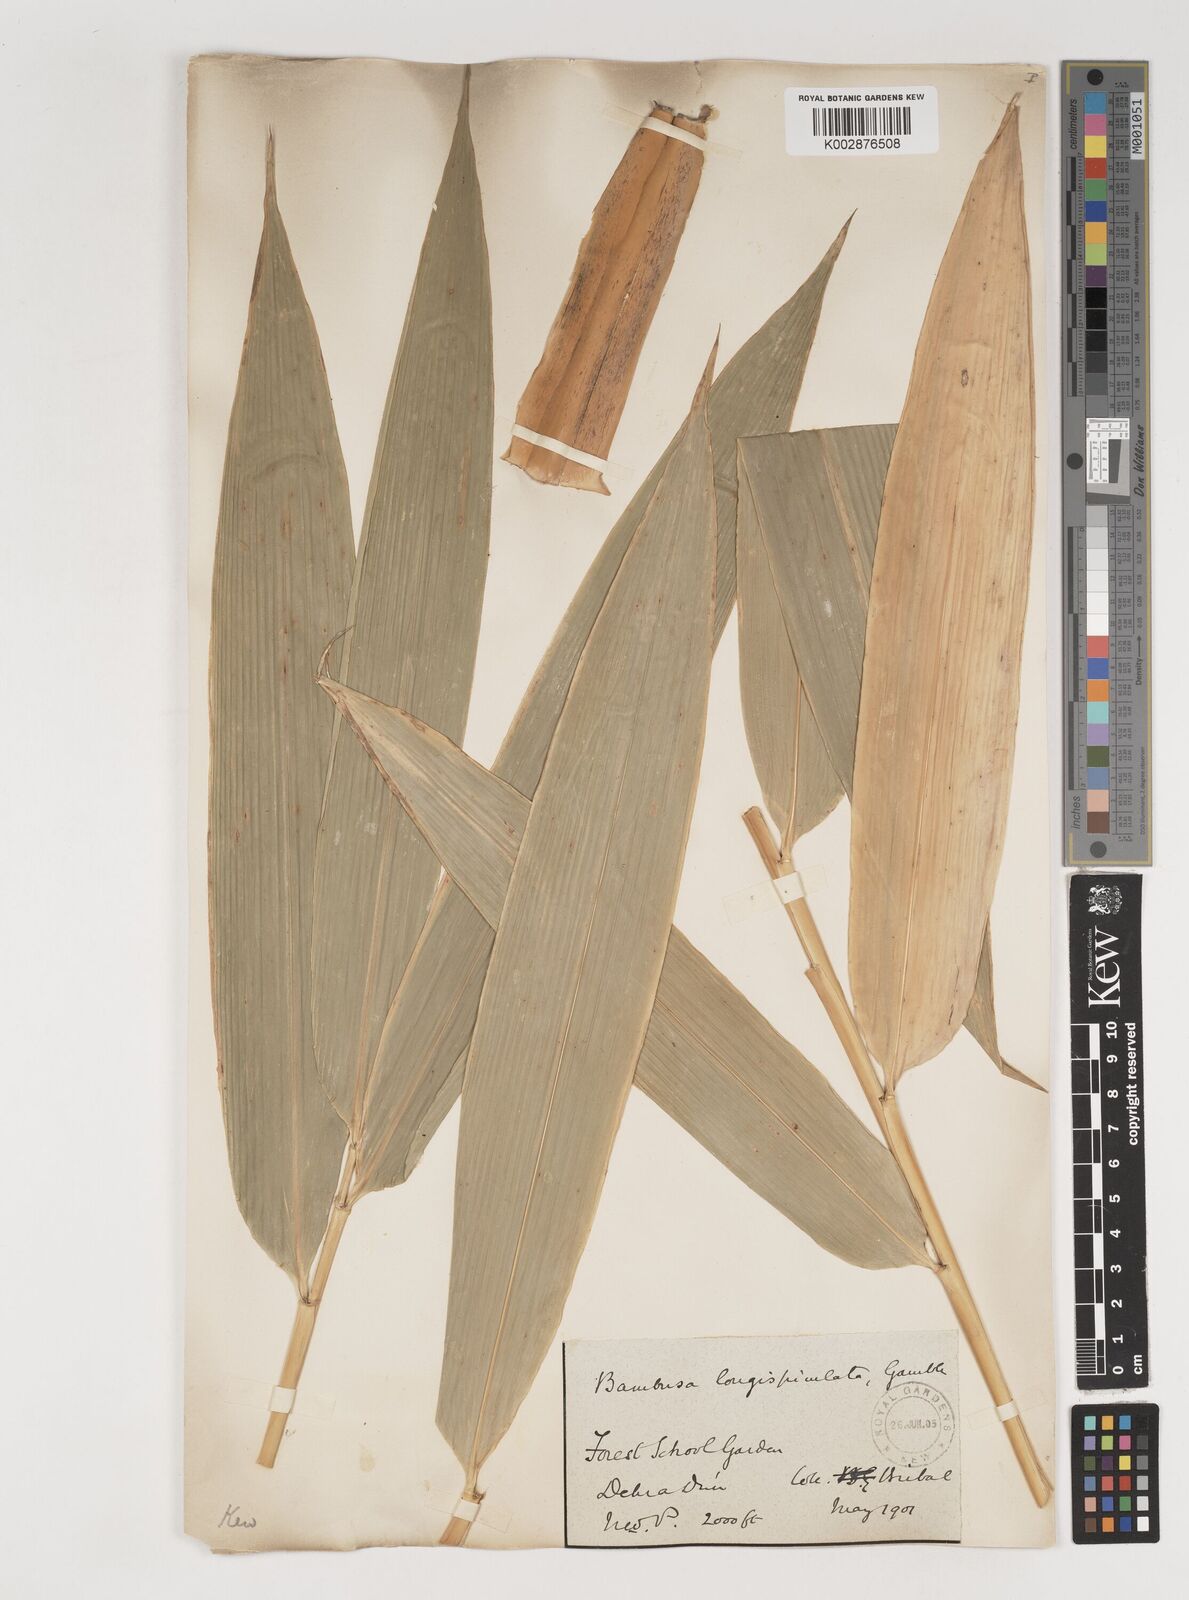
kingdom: Plantae
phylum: Tracheophyta
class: Liliopsida
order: Poales
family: Poaceae
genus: Bambusa
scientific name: Bambusa longispiculata
